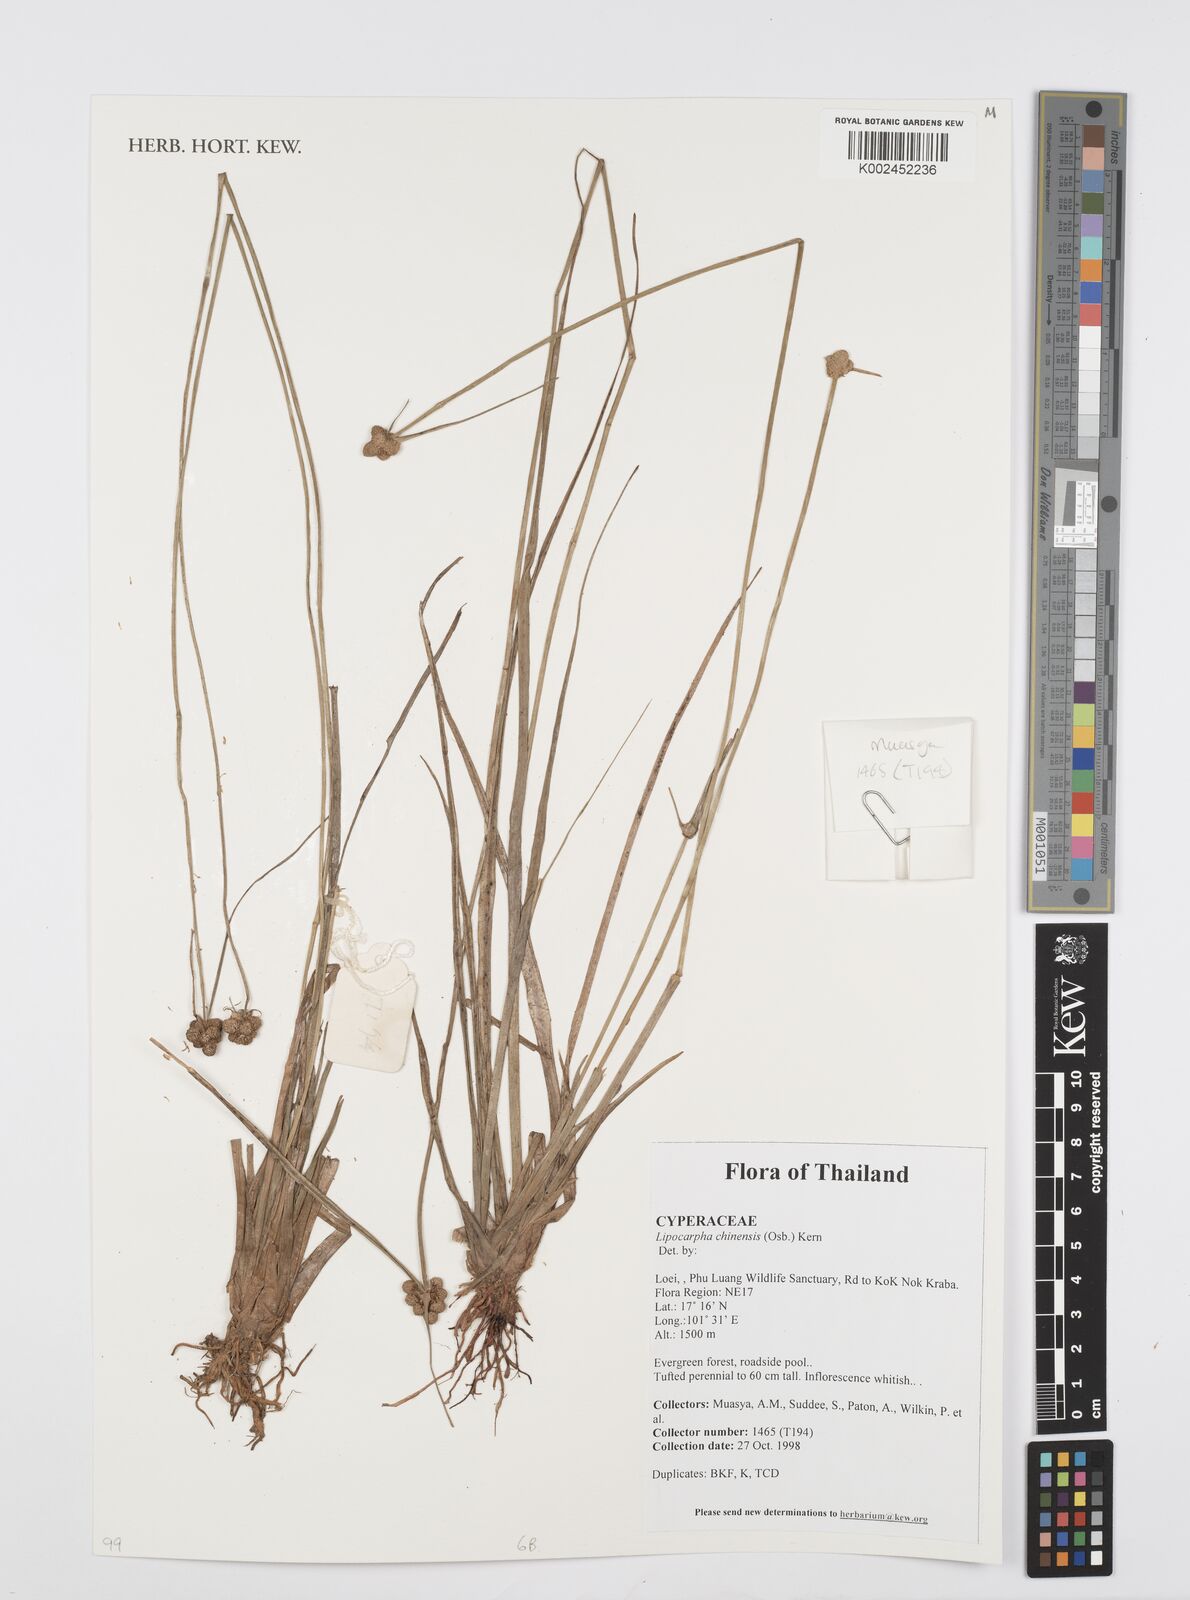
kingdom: Plantae
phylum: Tracheophyta
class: Liliopsida
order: Poales
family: Cyperaceae
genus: Cyperus
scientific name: Cyperus albescens
